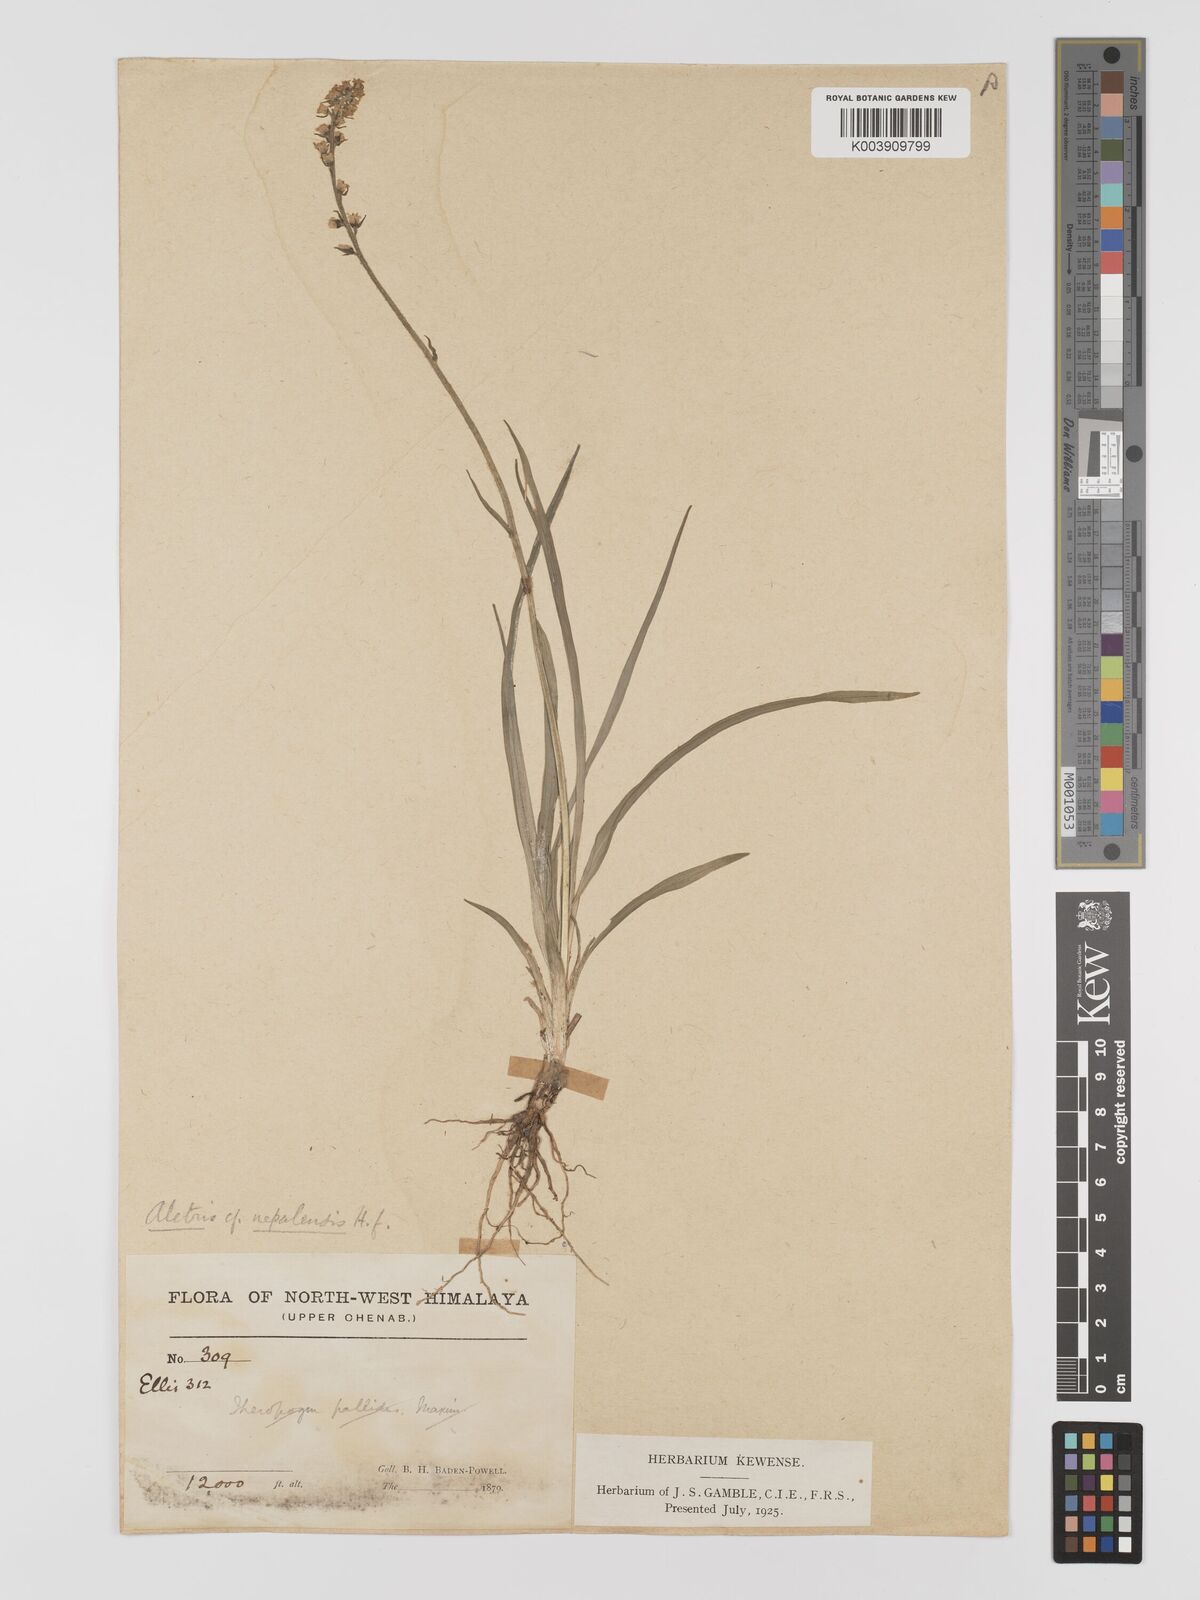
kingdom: Plantae
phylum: Tracheophyta
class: Liliopsida
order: Dioscoreales
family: Nartheciaceae
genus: Aletris
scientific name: Aletris pauciflora
